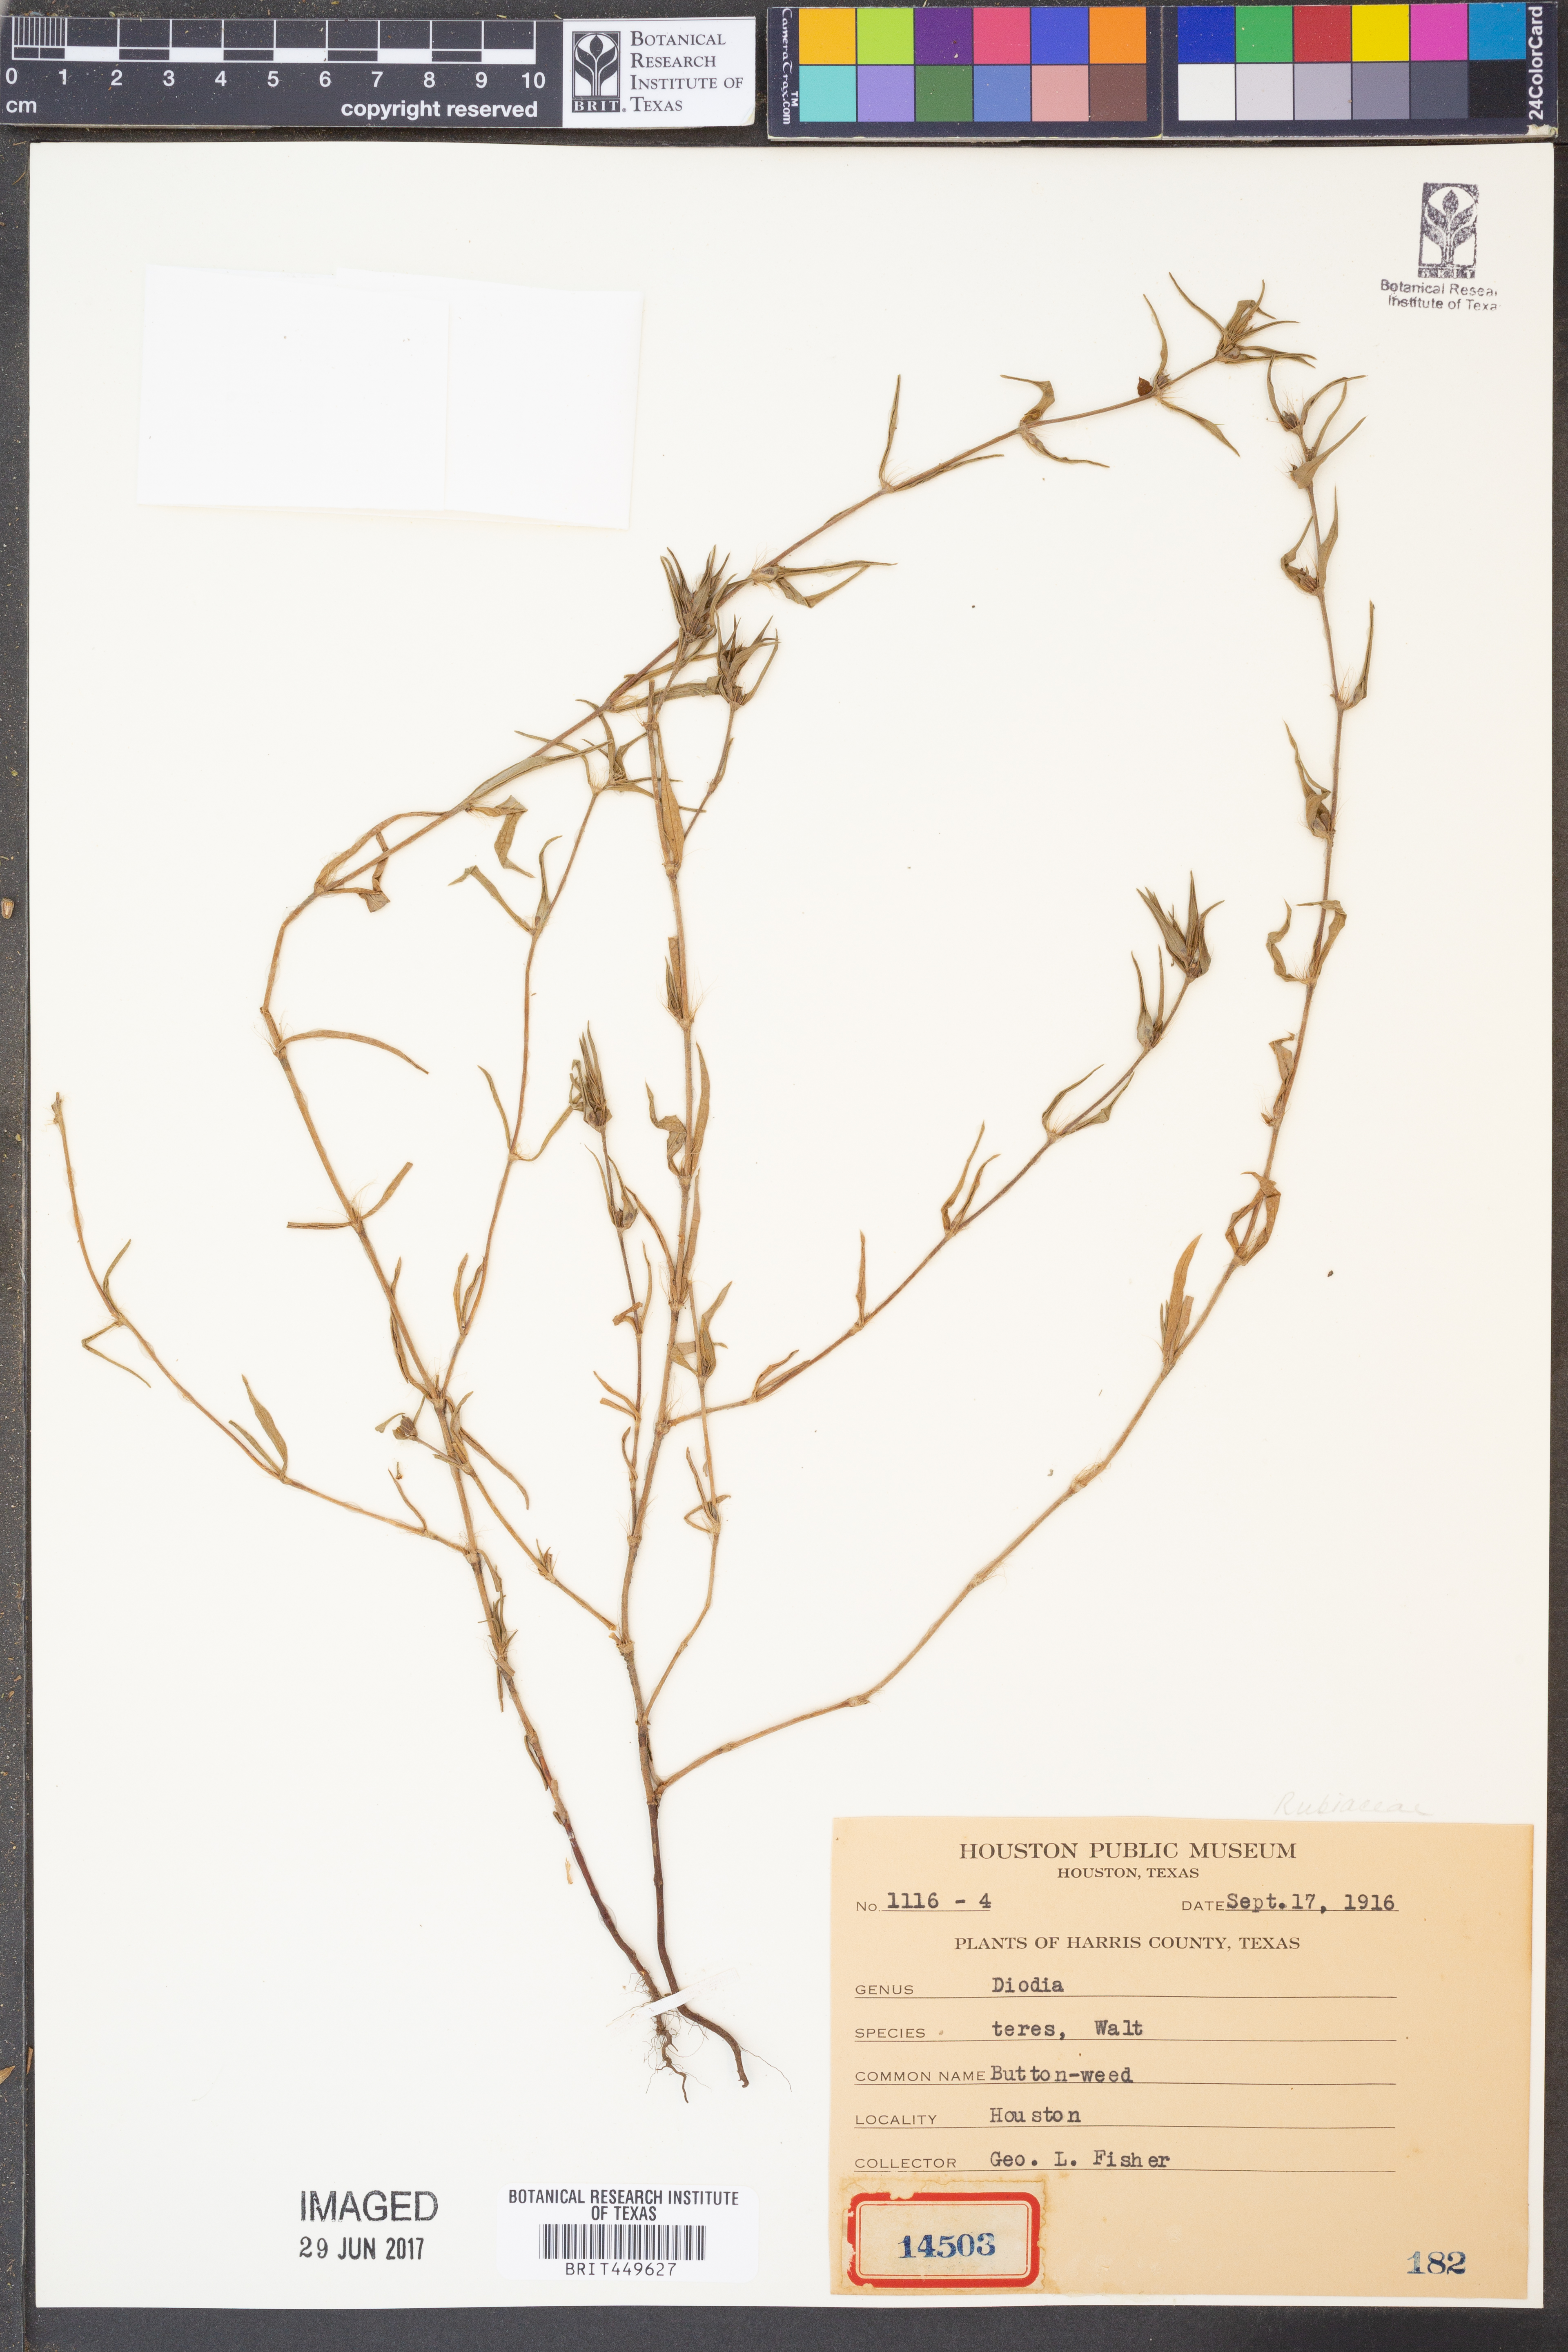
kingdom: Plantae
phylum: Tracheophyta
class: Magnoliopsida
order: Gentianales
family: Rubiaceae
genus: Hexasepalum
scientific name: Hexasepalum teres
